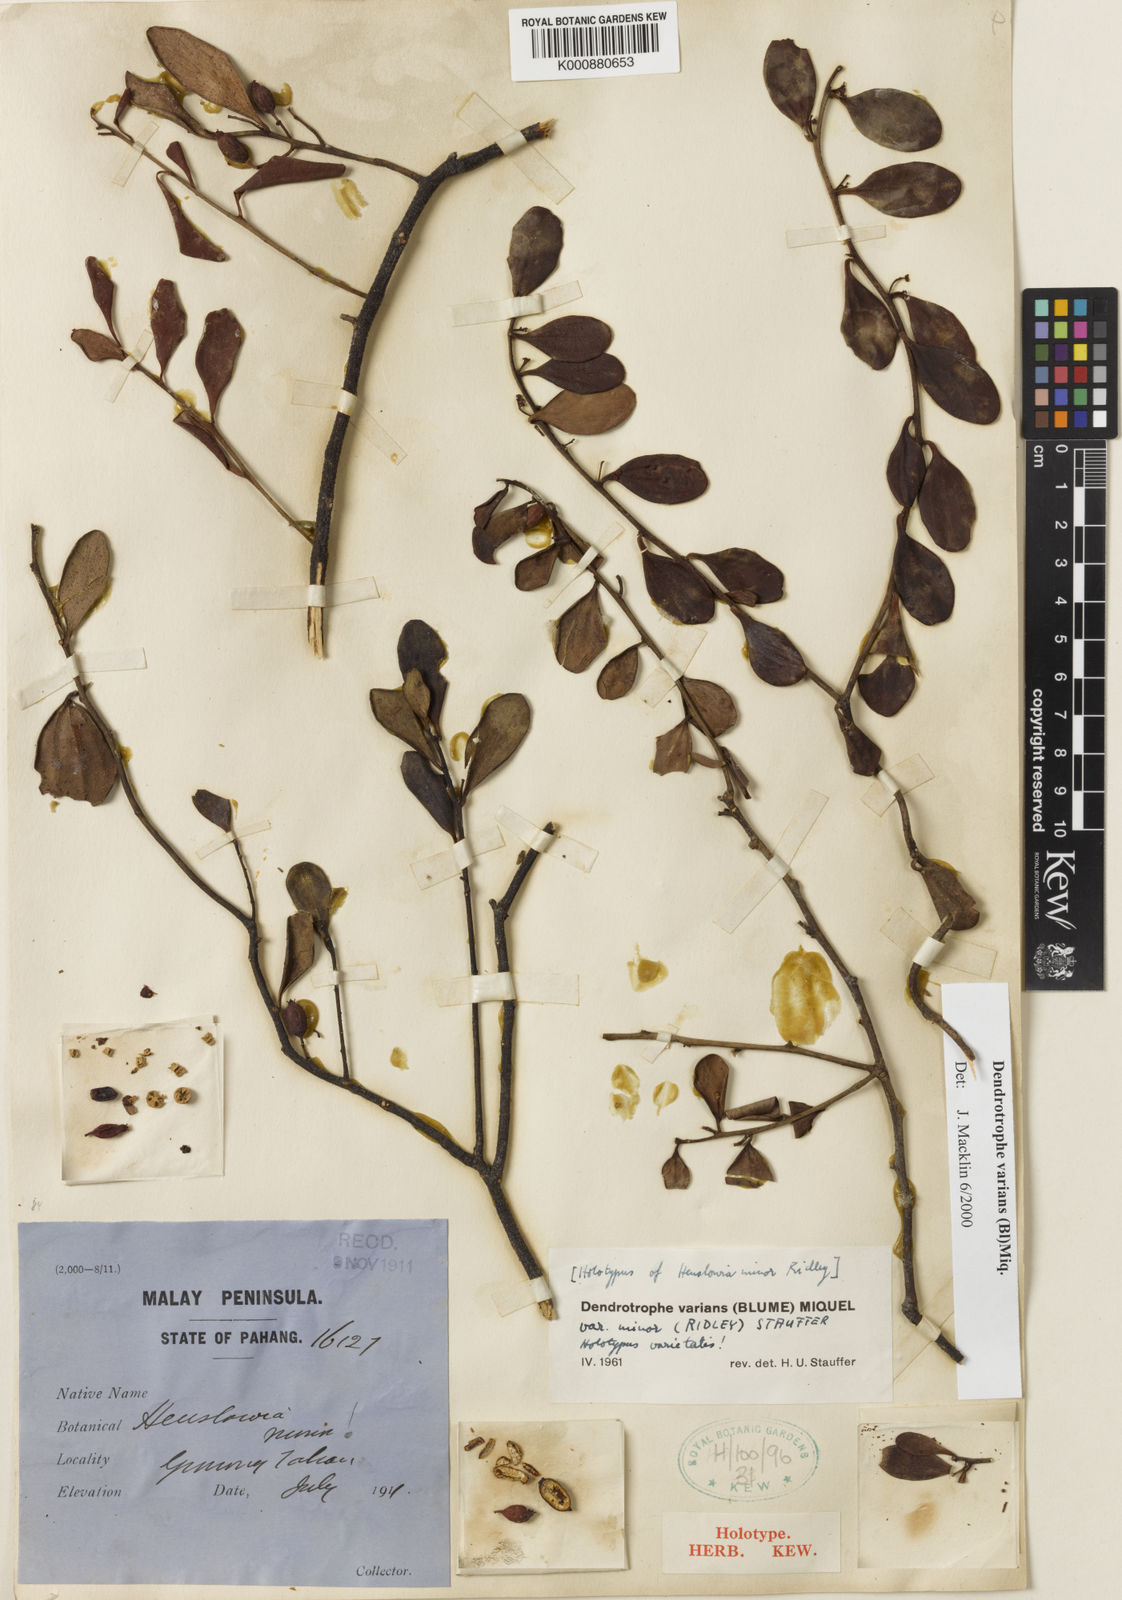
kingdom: Plantae
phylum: Tracheophyta
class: Magnoliopsida
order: Santalales
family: Amphorogynaceae
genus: Dendrotrophe
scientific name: Dendrotrophe varians
